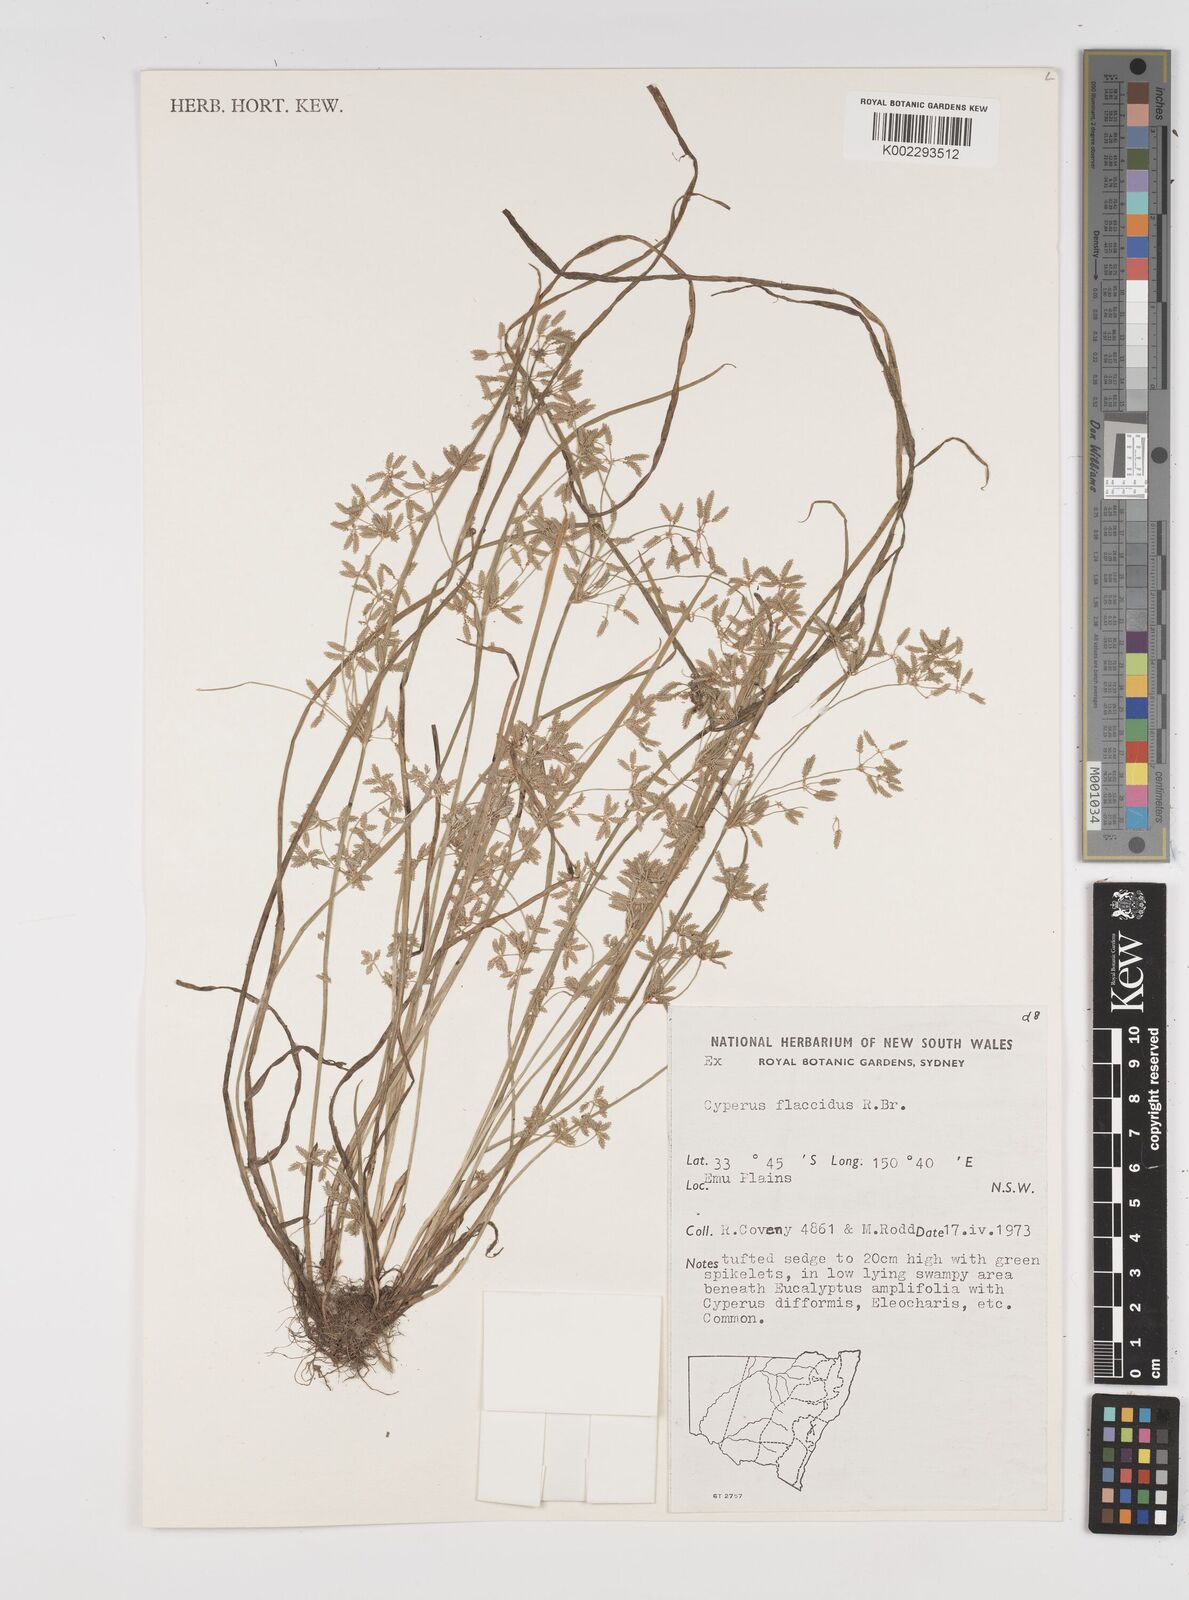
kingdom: Plantae
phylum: Tracheophyta
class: Liliopsida
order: Poales
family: Cyperaceae
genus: Cyperus
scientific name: Cyperus flaccidus
